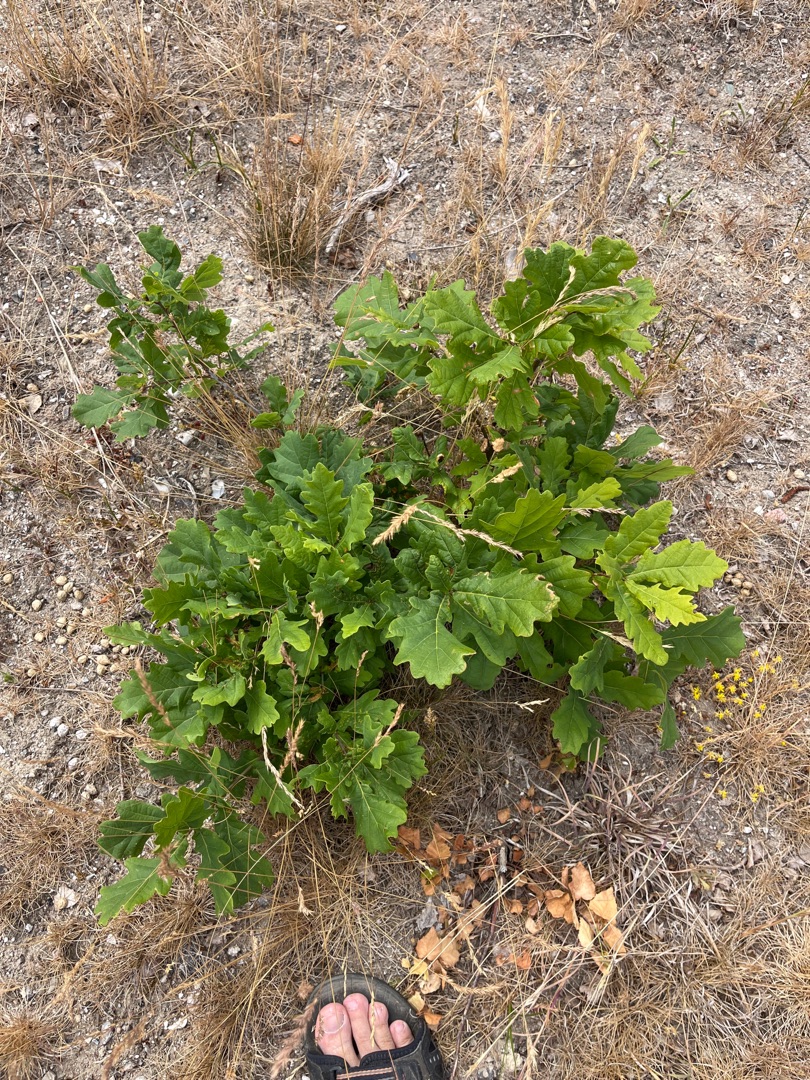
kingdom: Plantae
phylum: Tracheophyta
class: Magnoliopsida
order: Fagales
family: Fagaceae
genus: Quercus
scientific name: Quercus robur
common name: Stilk-eg/almindelig eg
